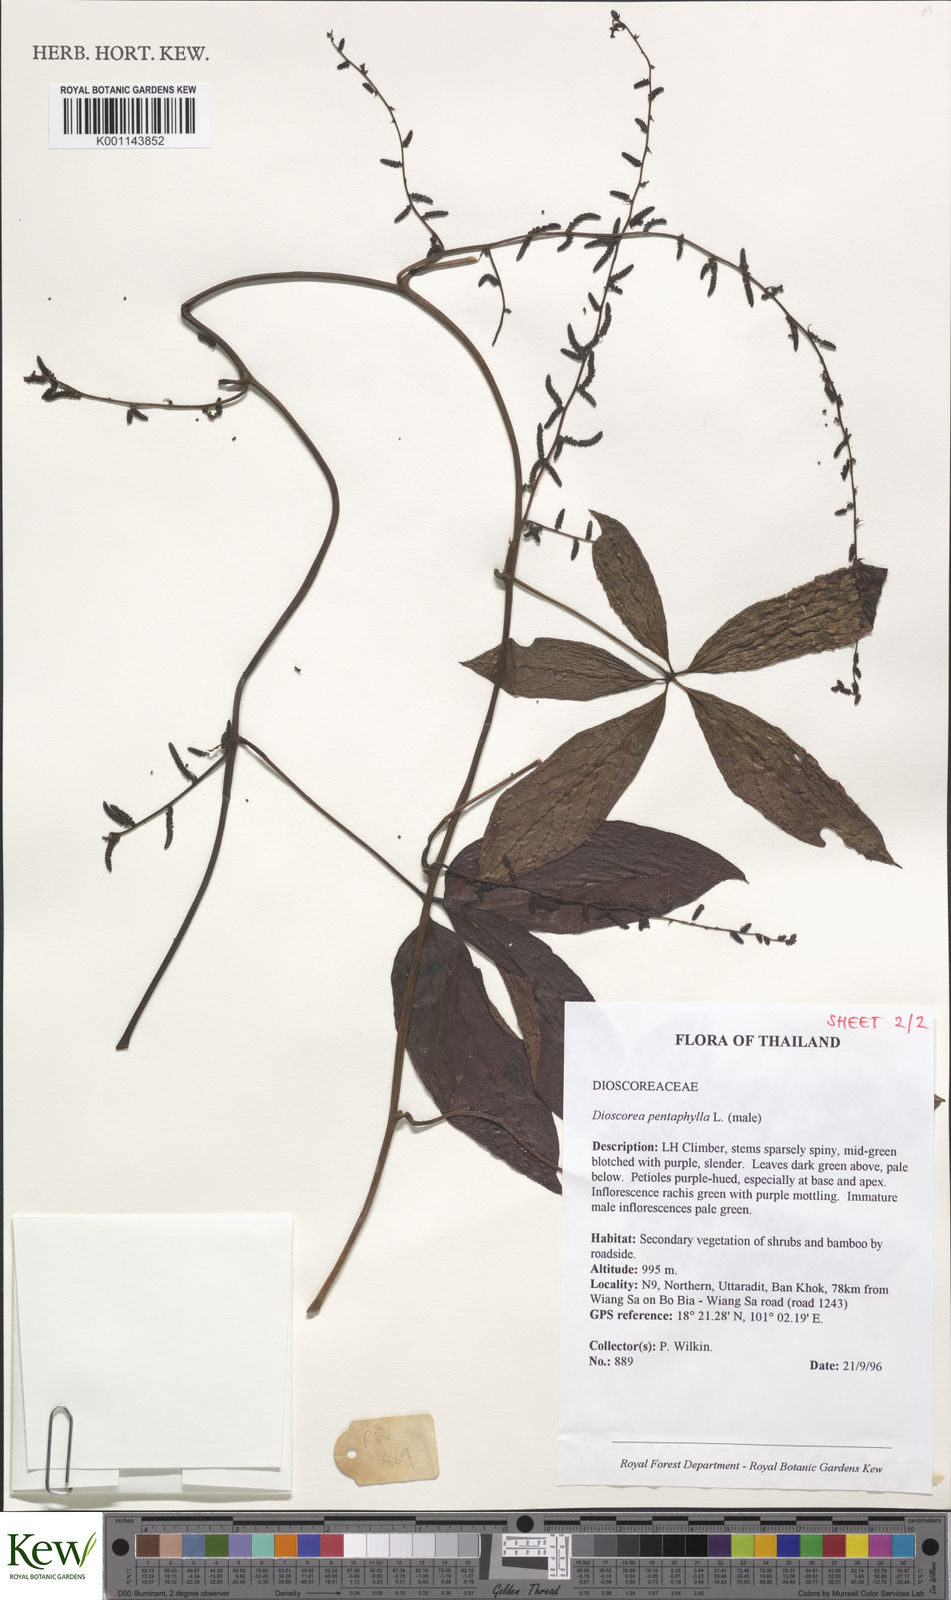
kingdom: Plantae
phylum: Tracheophyta
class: Liliopsida
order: Dioscoreales
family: Dioscoreaceae
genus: Dioscorea
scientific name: Dioscorea pentaphylla
